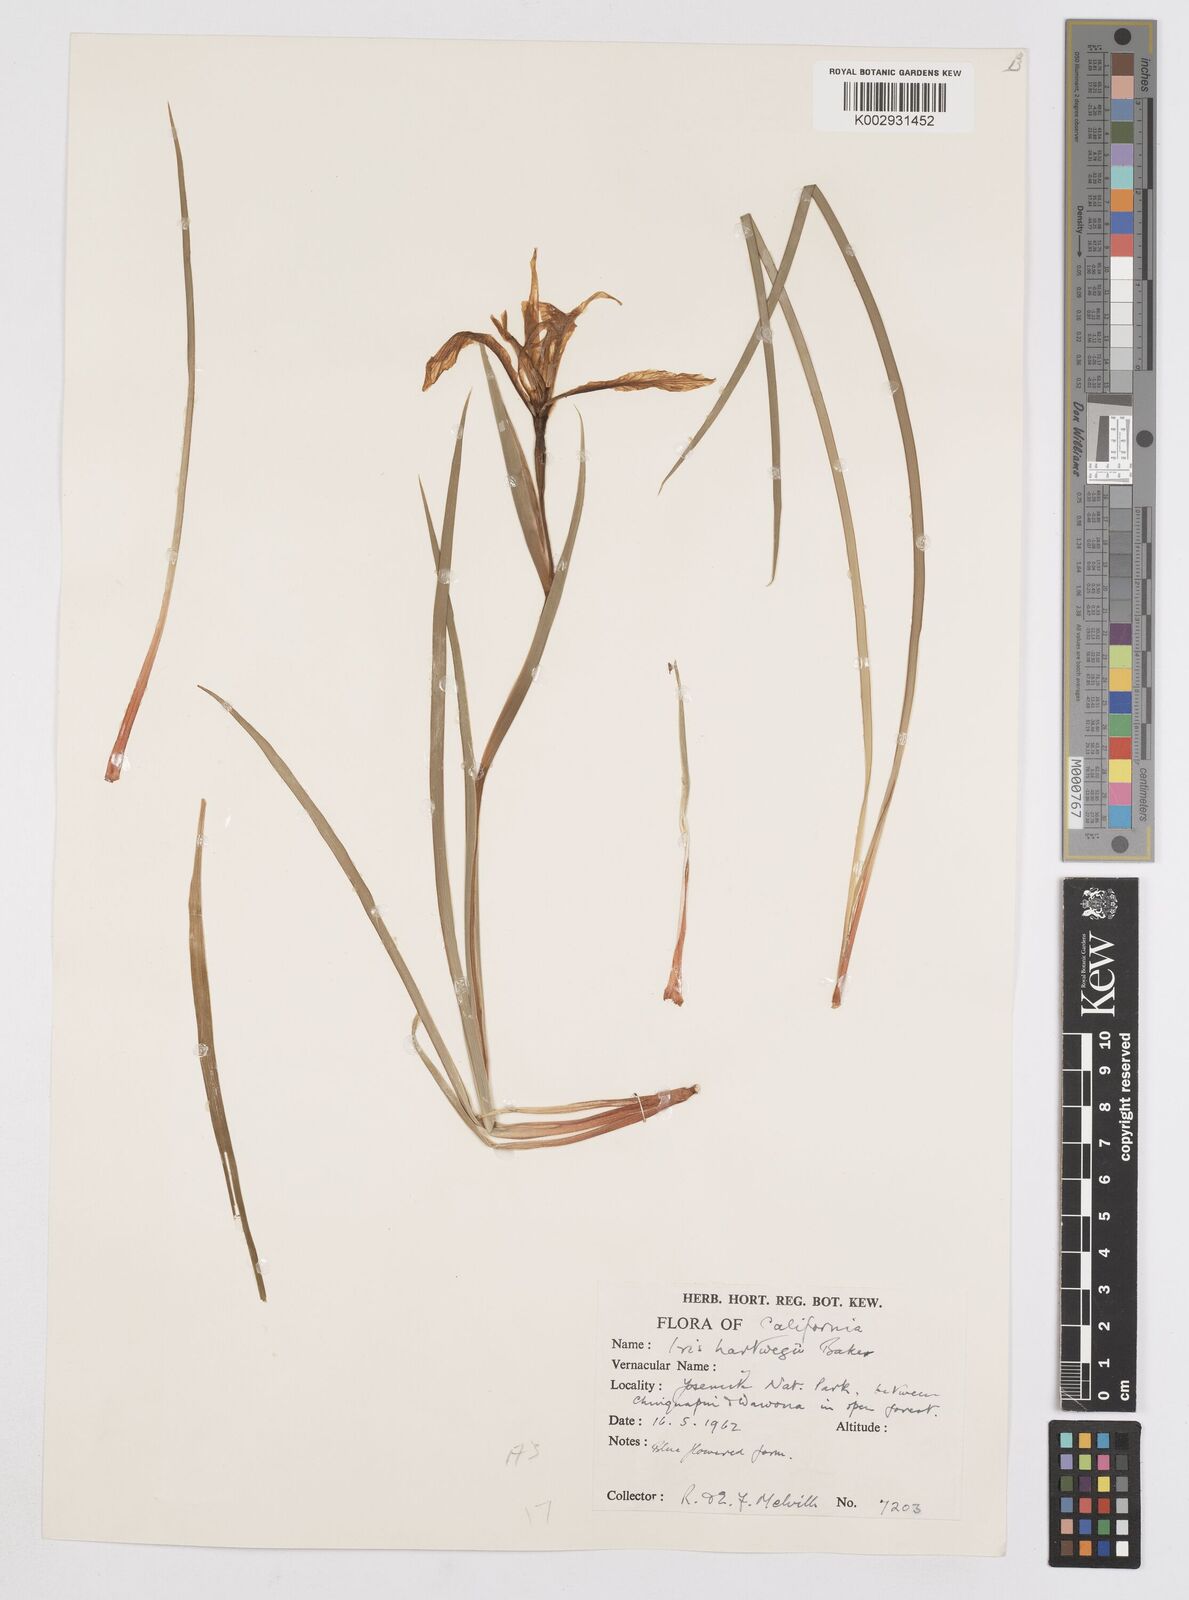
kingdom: Plantae
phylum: Tracheophyta
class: Liliopsida
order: Asparagales
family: Iridaceae
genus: Iris
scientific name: Iris hartwegii
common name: Sierra iris
